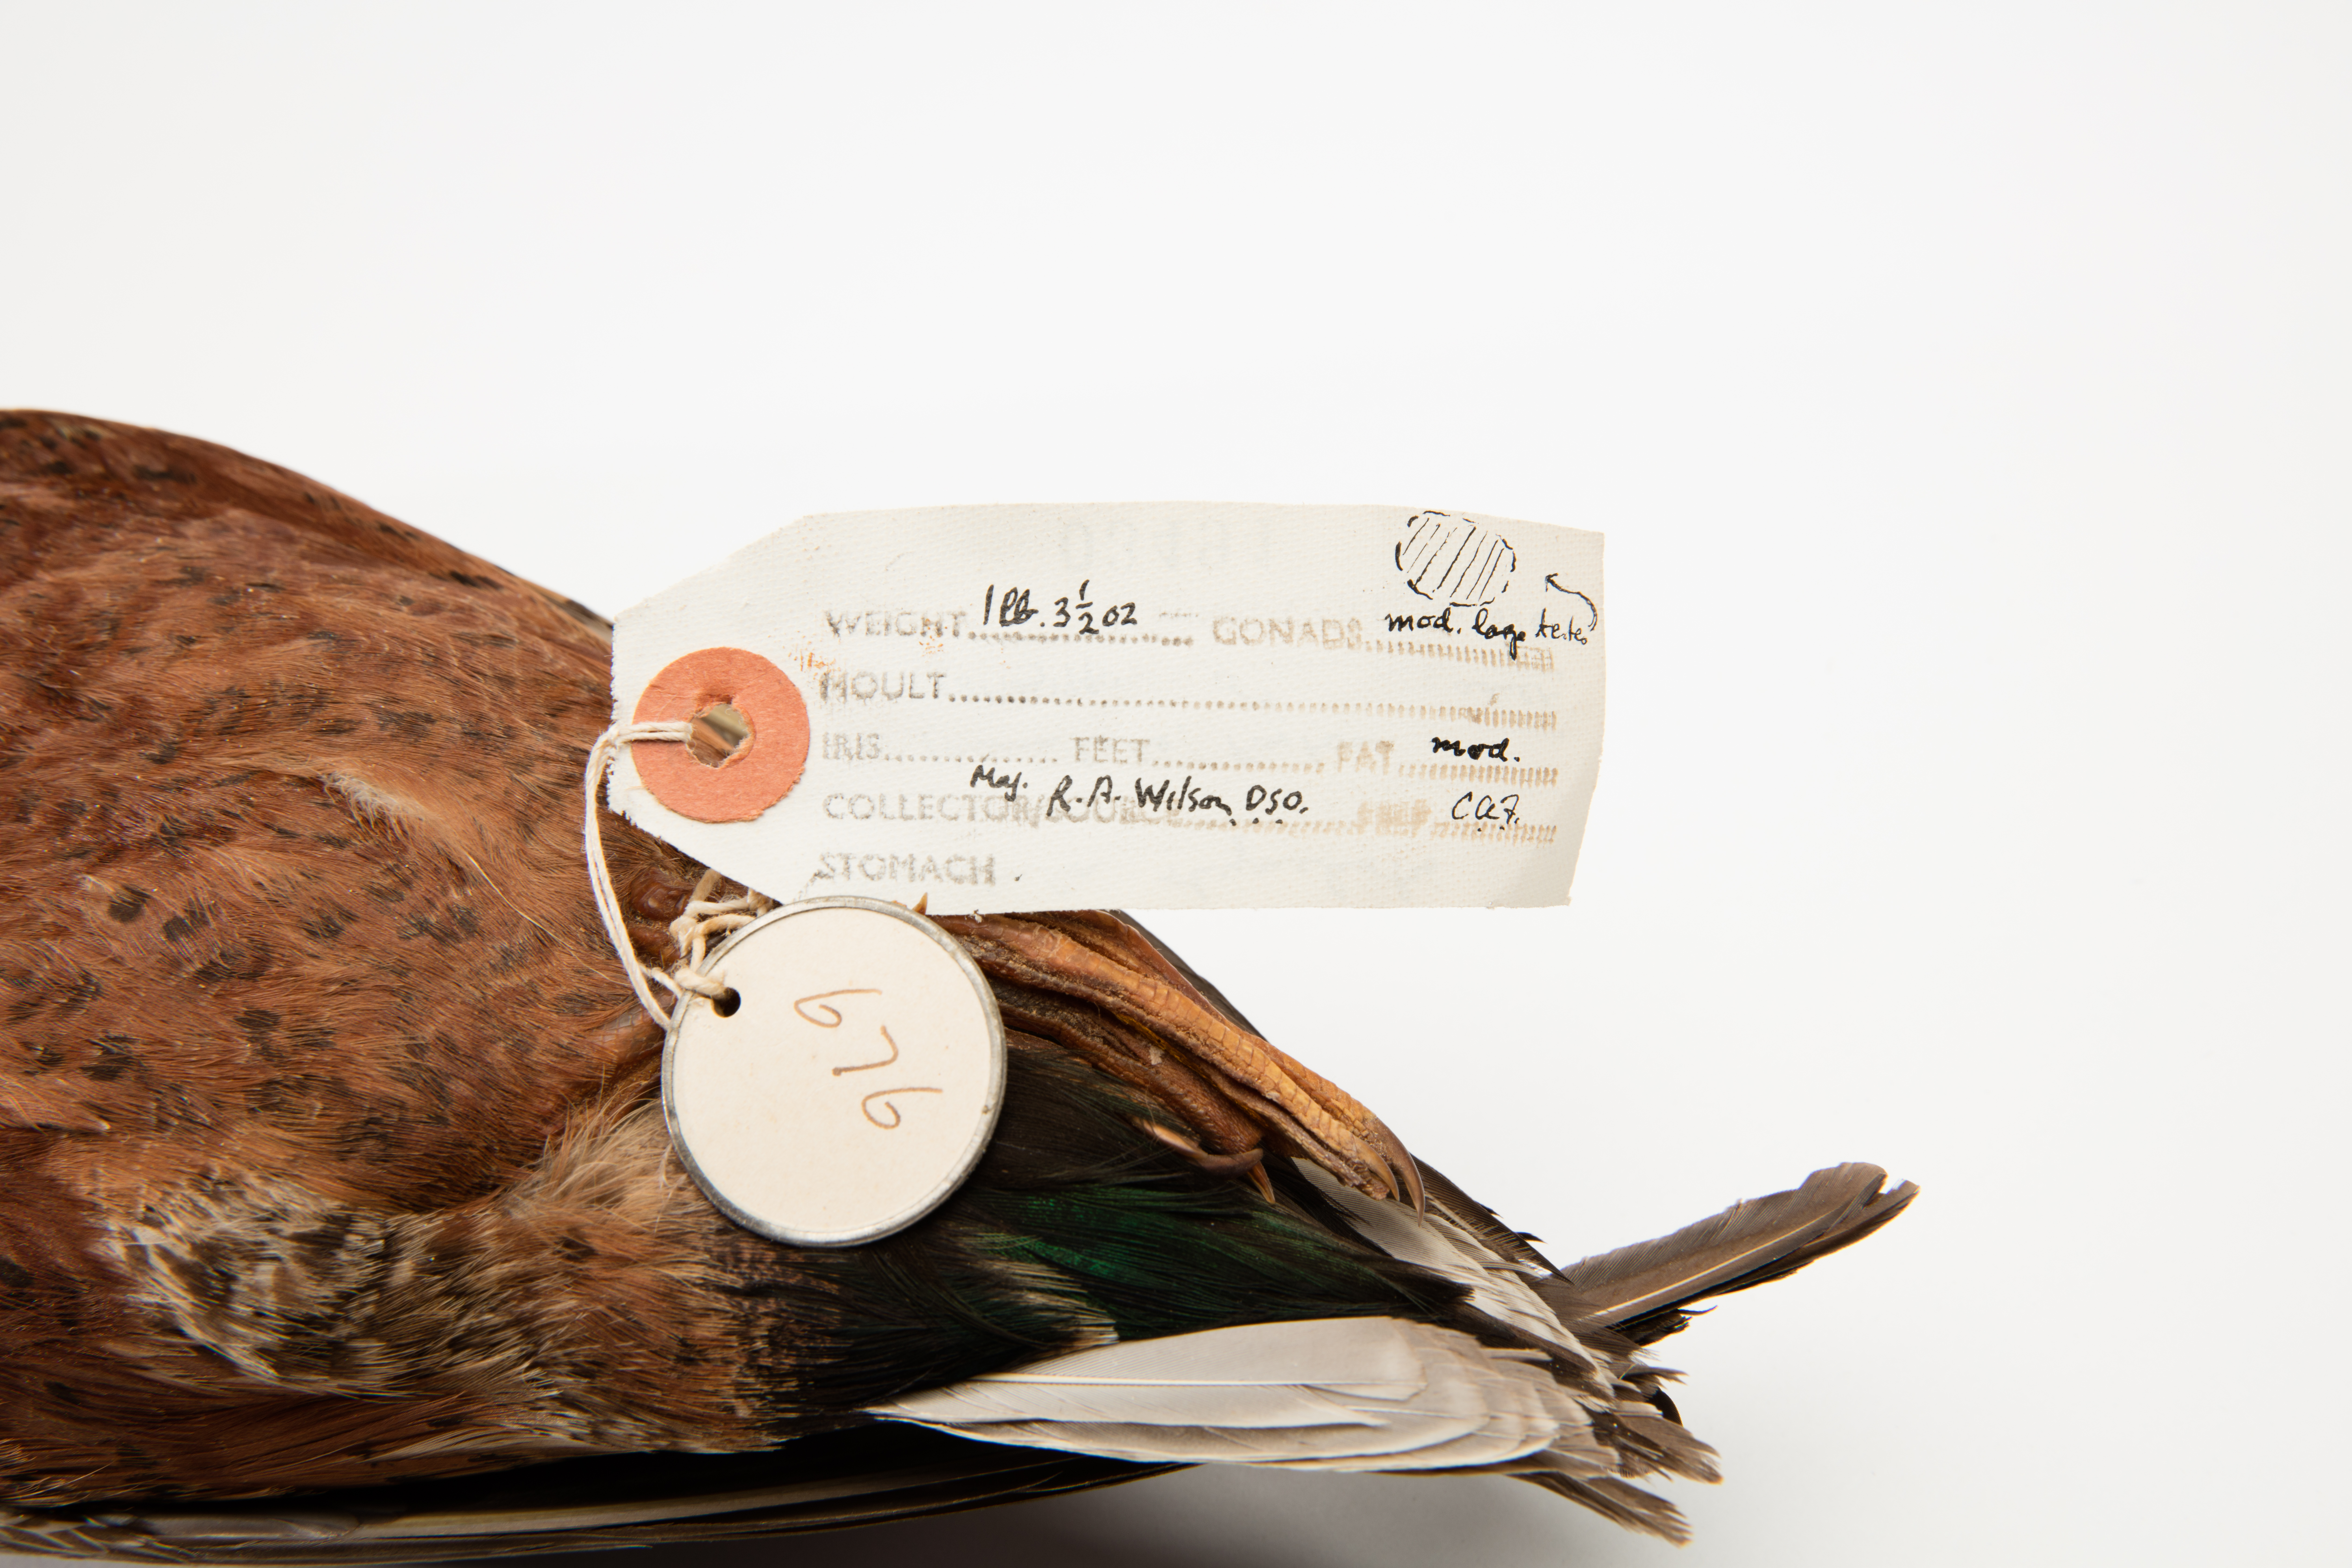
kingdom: Animalia
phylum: Chordata
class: Aves
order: Anseriformes
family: Anatidae
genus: Spatula
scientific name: Spatula rhynchotis
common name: Australian shoveler
